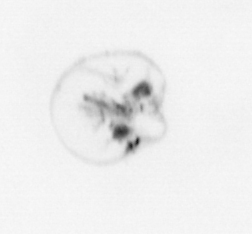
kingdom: Animalia
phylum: Cnidaria
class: Hydrozoa
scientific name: Hydrozoa
